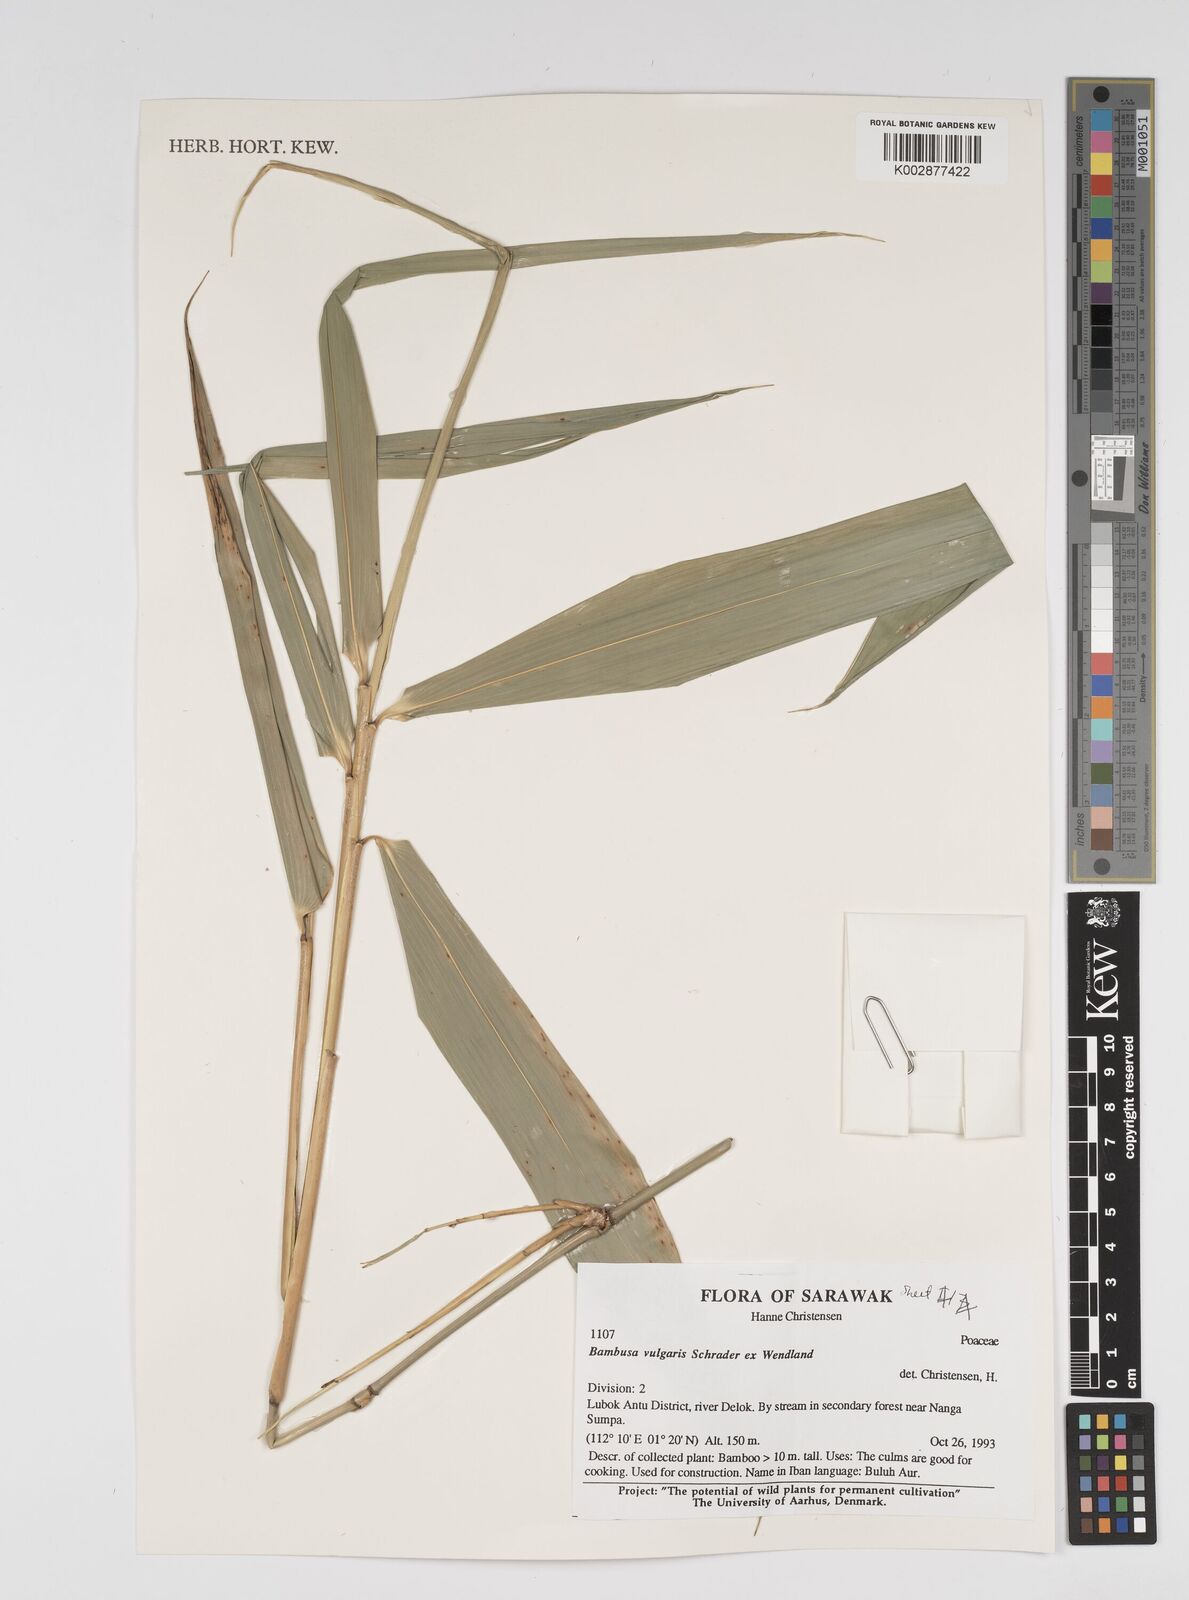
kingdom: Plantae
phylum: Tracheophyta
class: Liliopsida
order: Poales
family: Poaceae
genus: Bambusa
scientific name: Bambusa vulgaris
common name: Common bamboo
